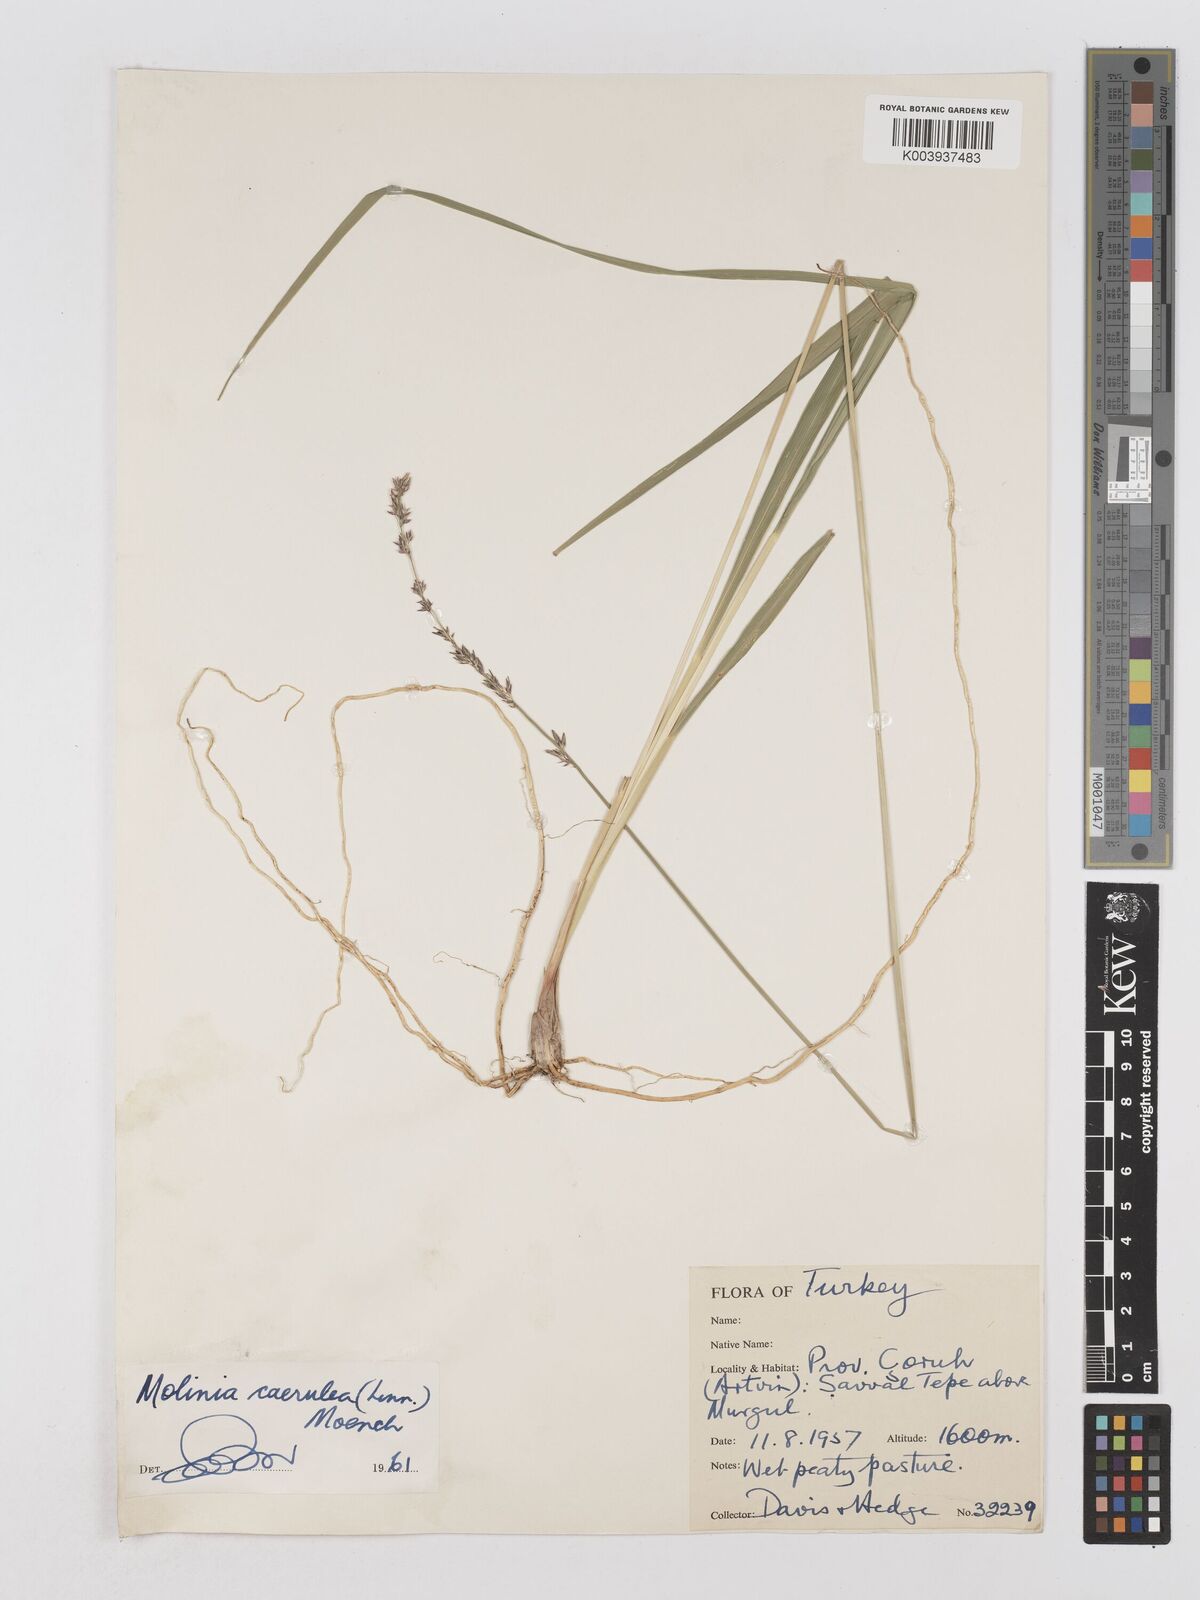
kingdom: Plantae
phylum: Tracheophyta
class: Liliopsida
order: Poales
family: Poaceae
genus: Molinia
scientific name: Molinia caerulea
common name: Purple moor-grass
